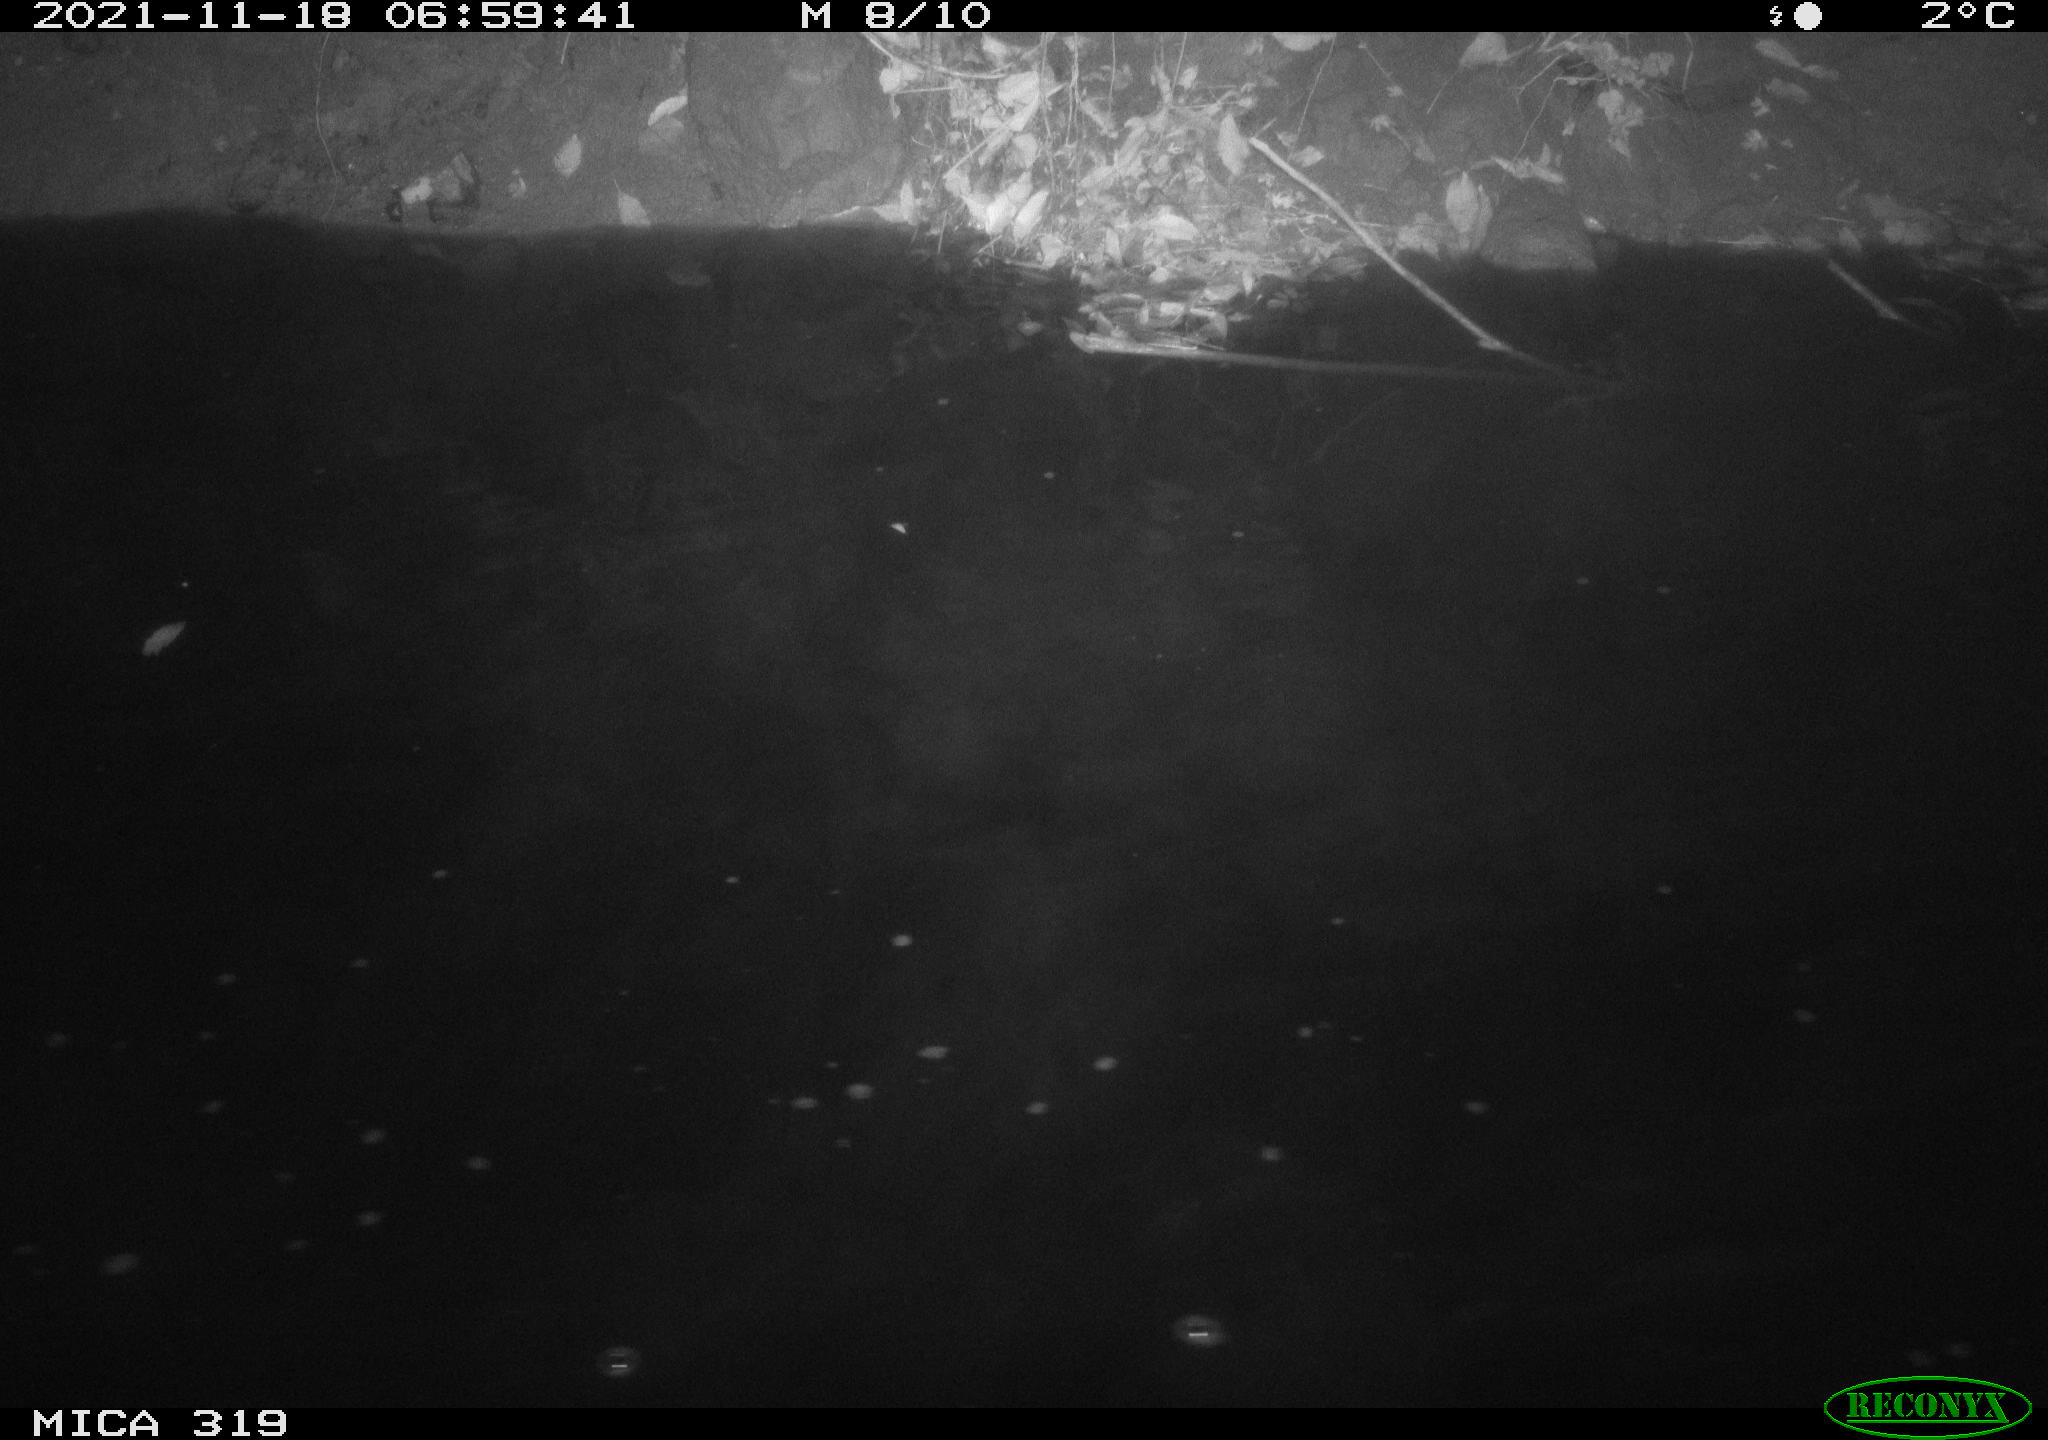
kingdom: Animalia
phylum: Chordata
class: Aves
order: Anseriformes
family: Anatidae
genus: Anas
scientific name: Anas platyrhynchos
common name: Mallard
